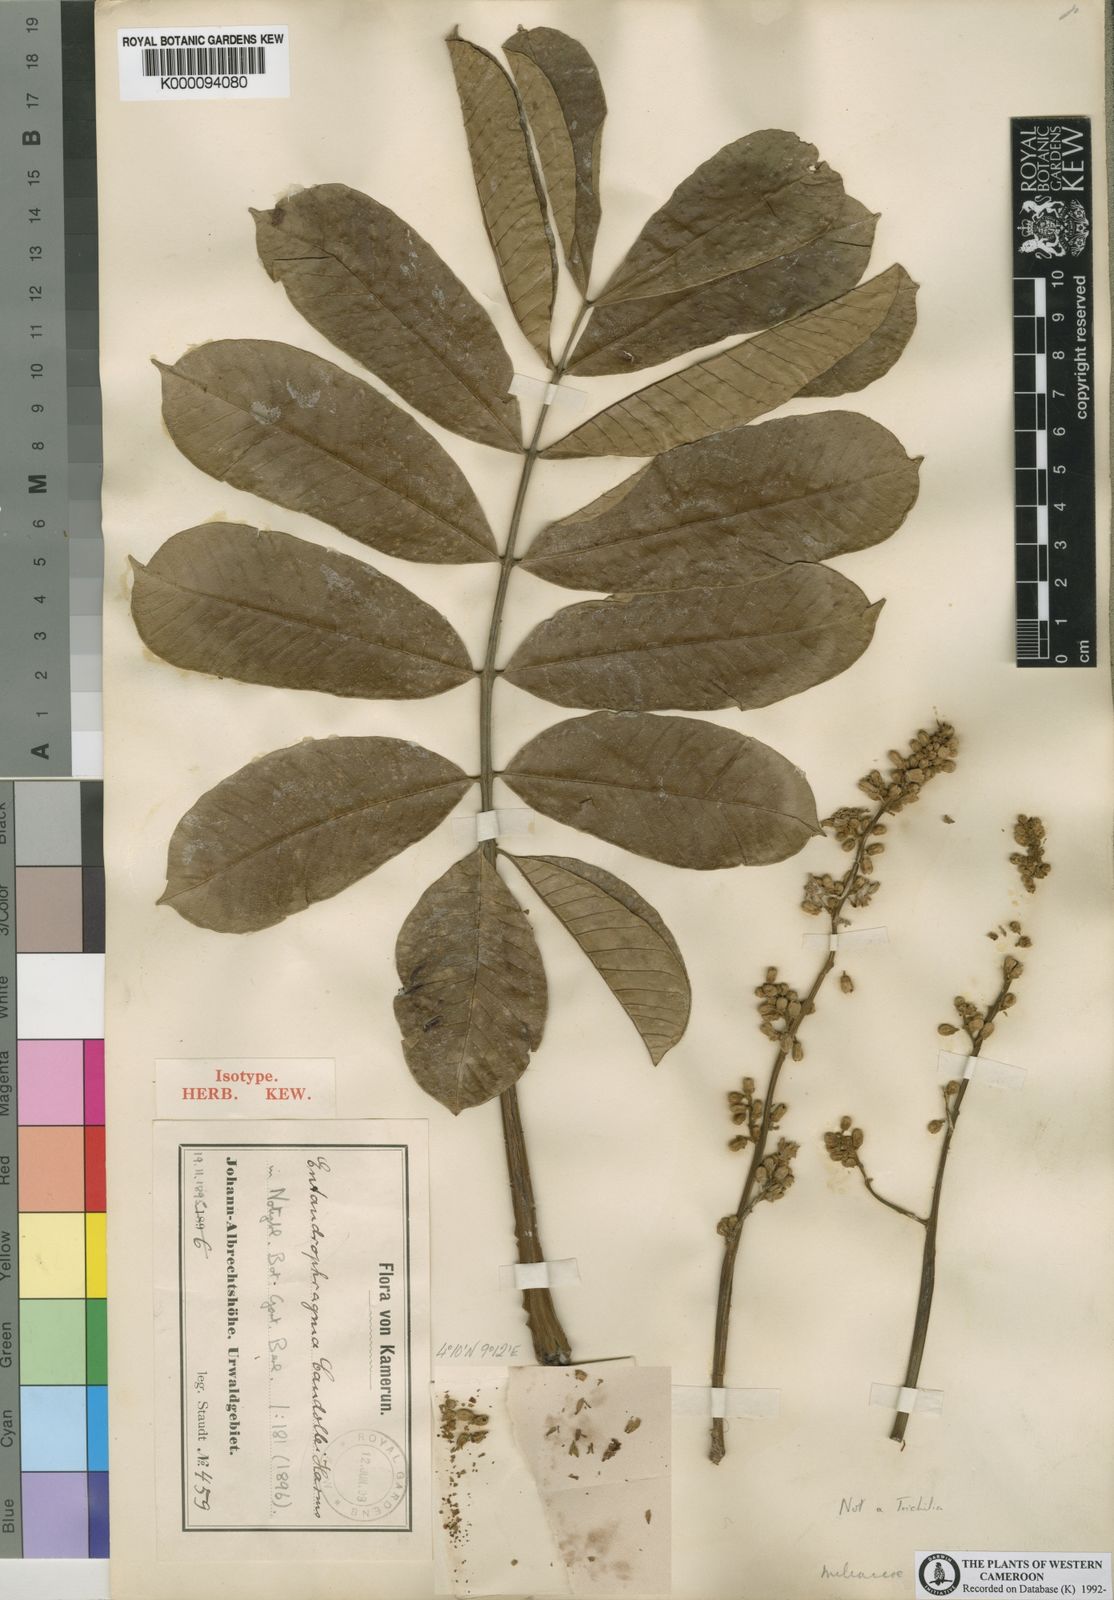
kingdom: Plantae
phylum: Tracheophyta
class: Magnoliopsida
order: Sapindales
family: Meliaceae
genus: Entandrophragma
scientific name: Entandrophragma candollei
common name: Cedar kokoti
